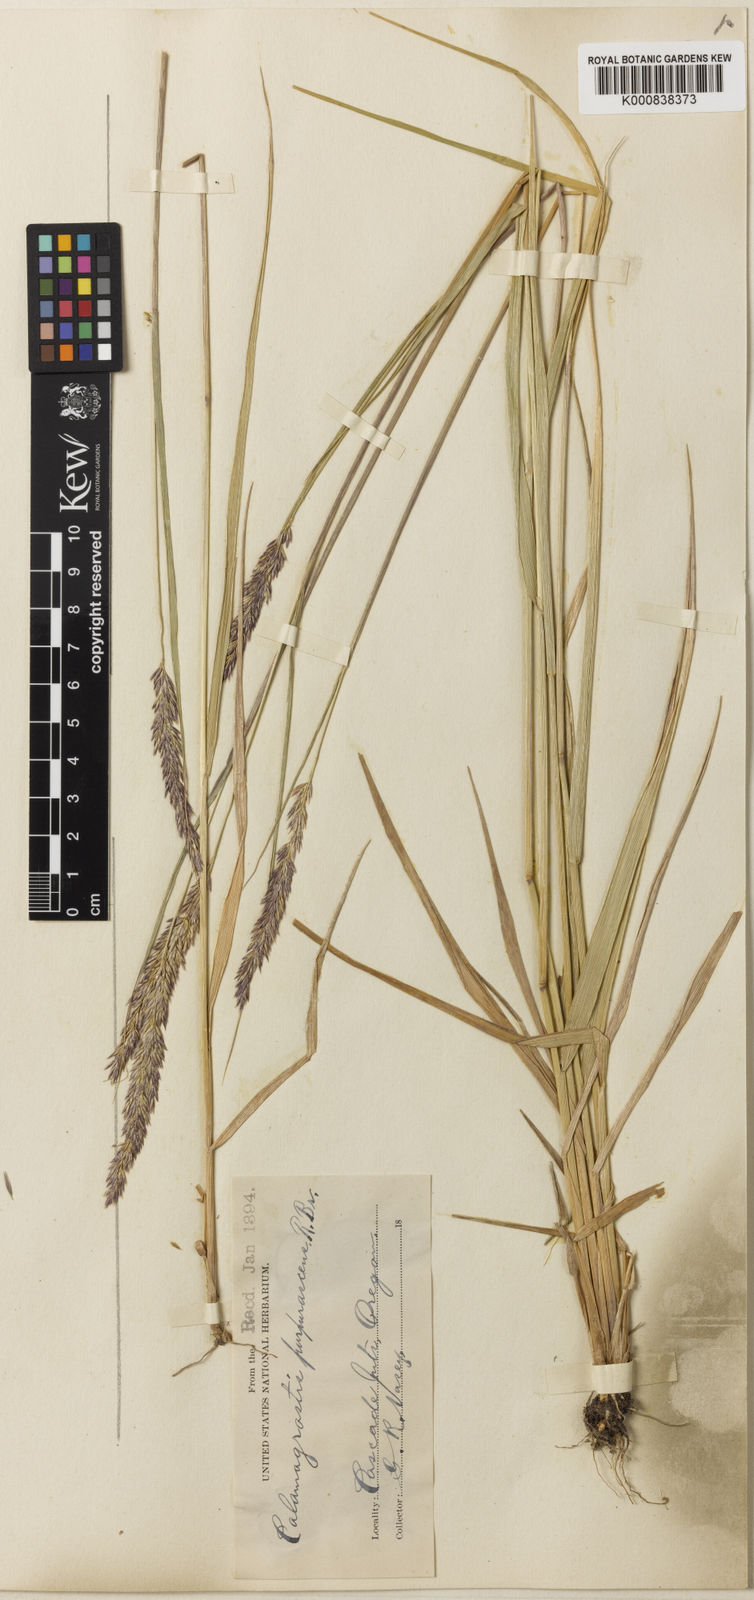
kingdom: Plantae
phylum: Tracheophyta
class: Liliopsida
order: Poales
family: Poaceae
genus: Calamagrostis
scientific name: Calamagrostis purpurascens
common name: Purple reedgrass
